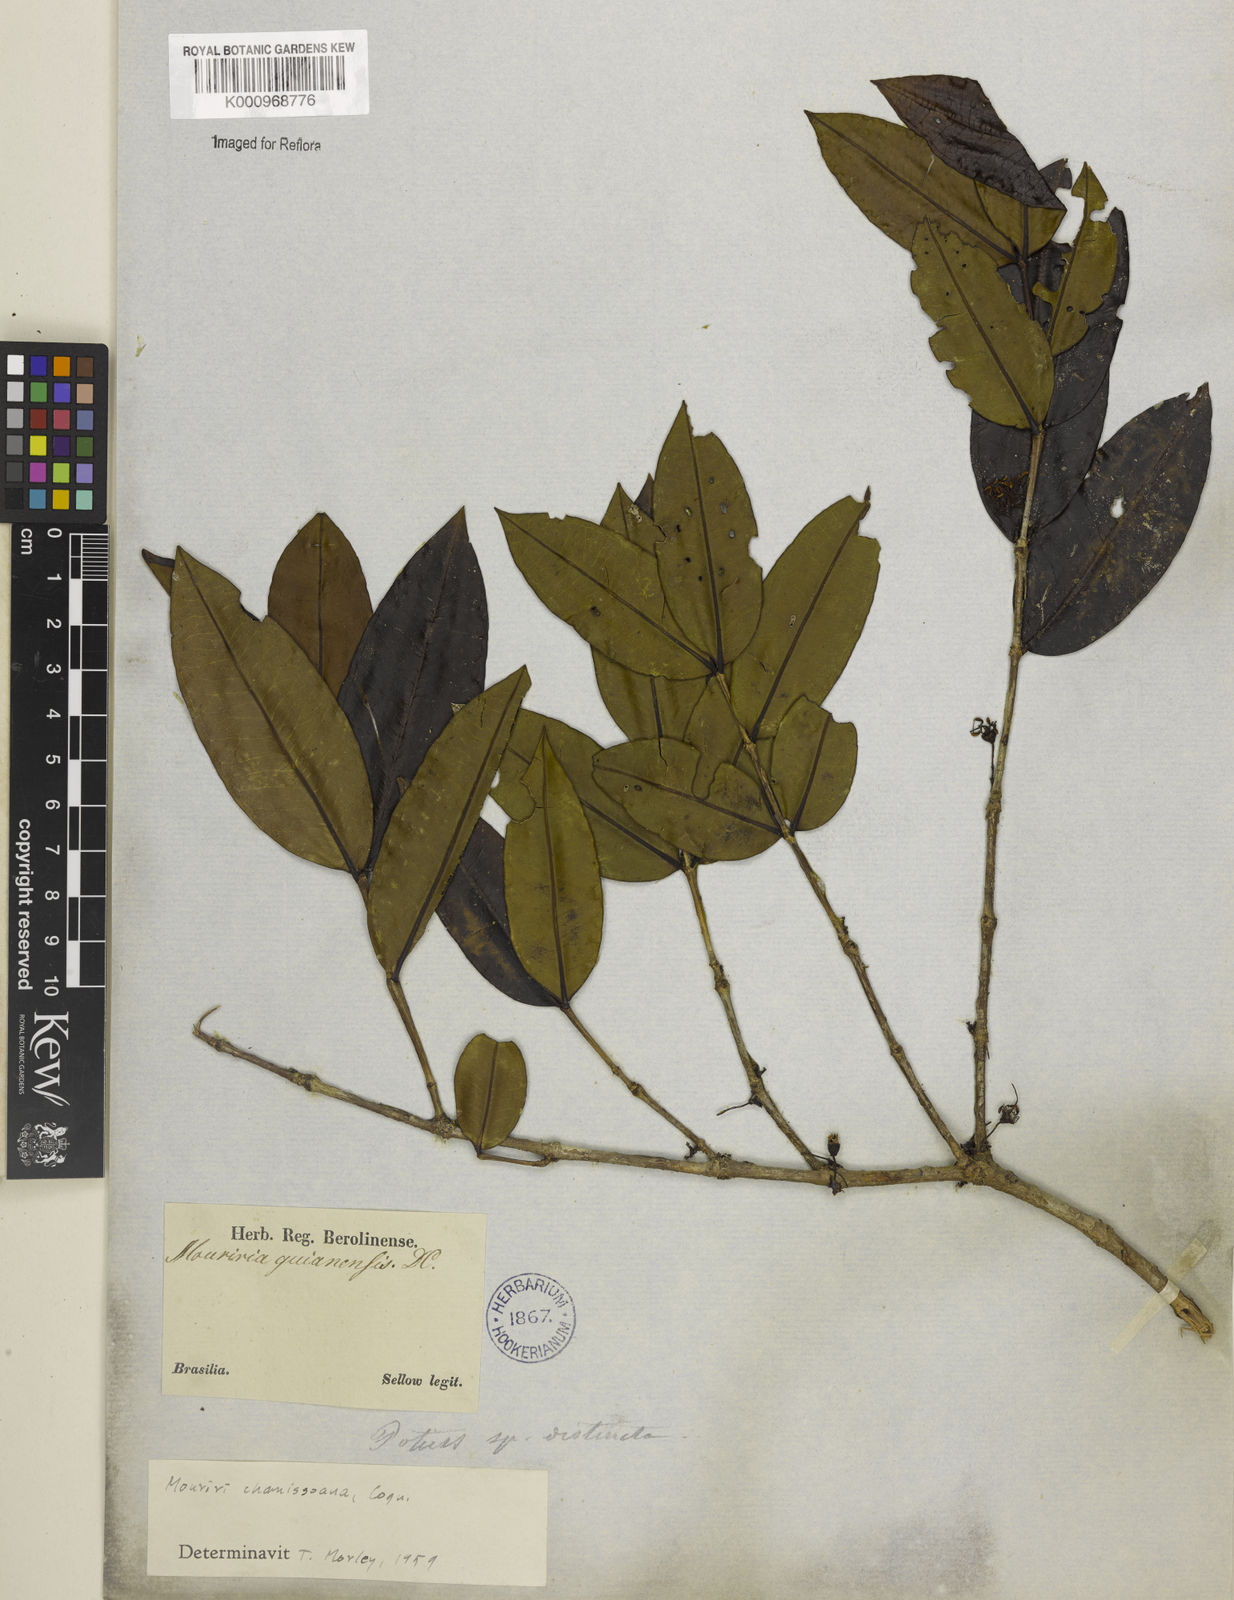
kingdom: Plantae
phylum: Tracheophyta
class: Magnoliopsida
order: Myrtales
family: Melastomataceae
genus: Mouriri
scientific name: Mouriri chamissoana
